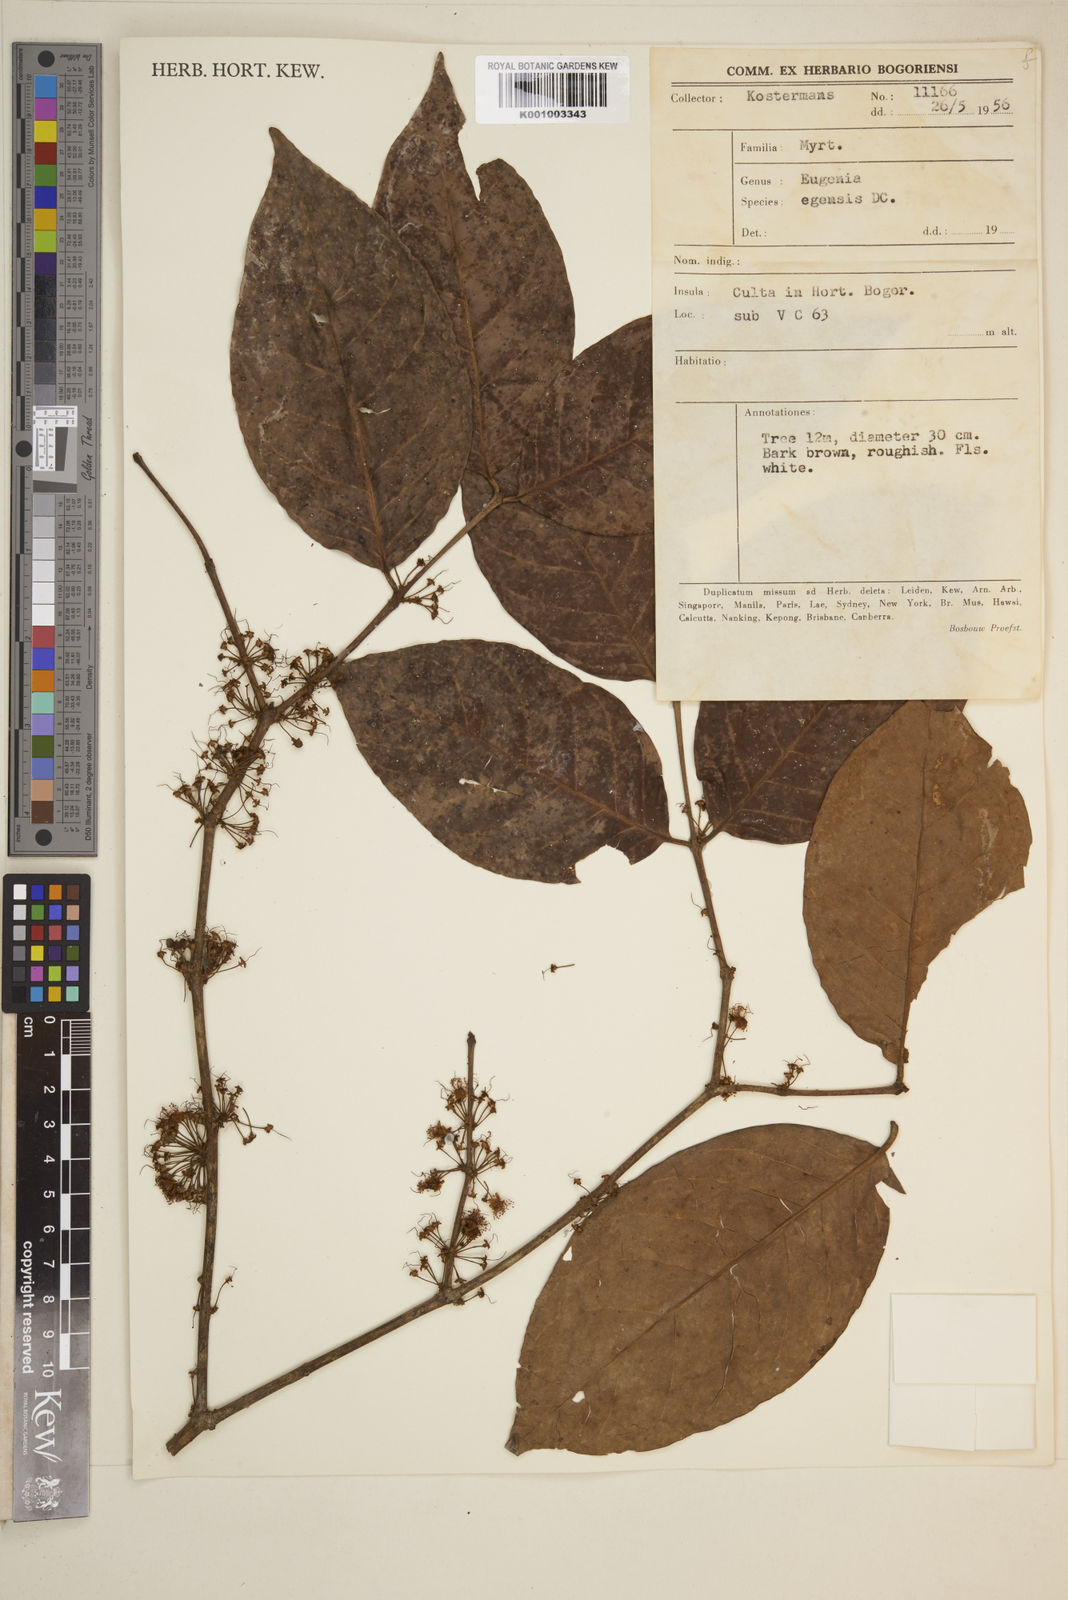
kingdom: Plantae
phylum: Tracheophyta
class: Magnoliopsida
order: Myrtales
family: Myrtaceae
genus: Eugenia
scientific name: Eugenia egensis
